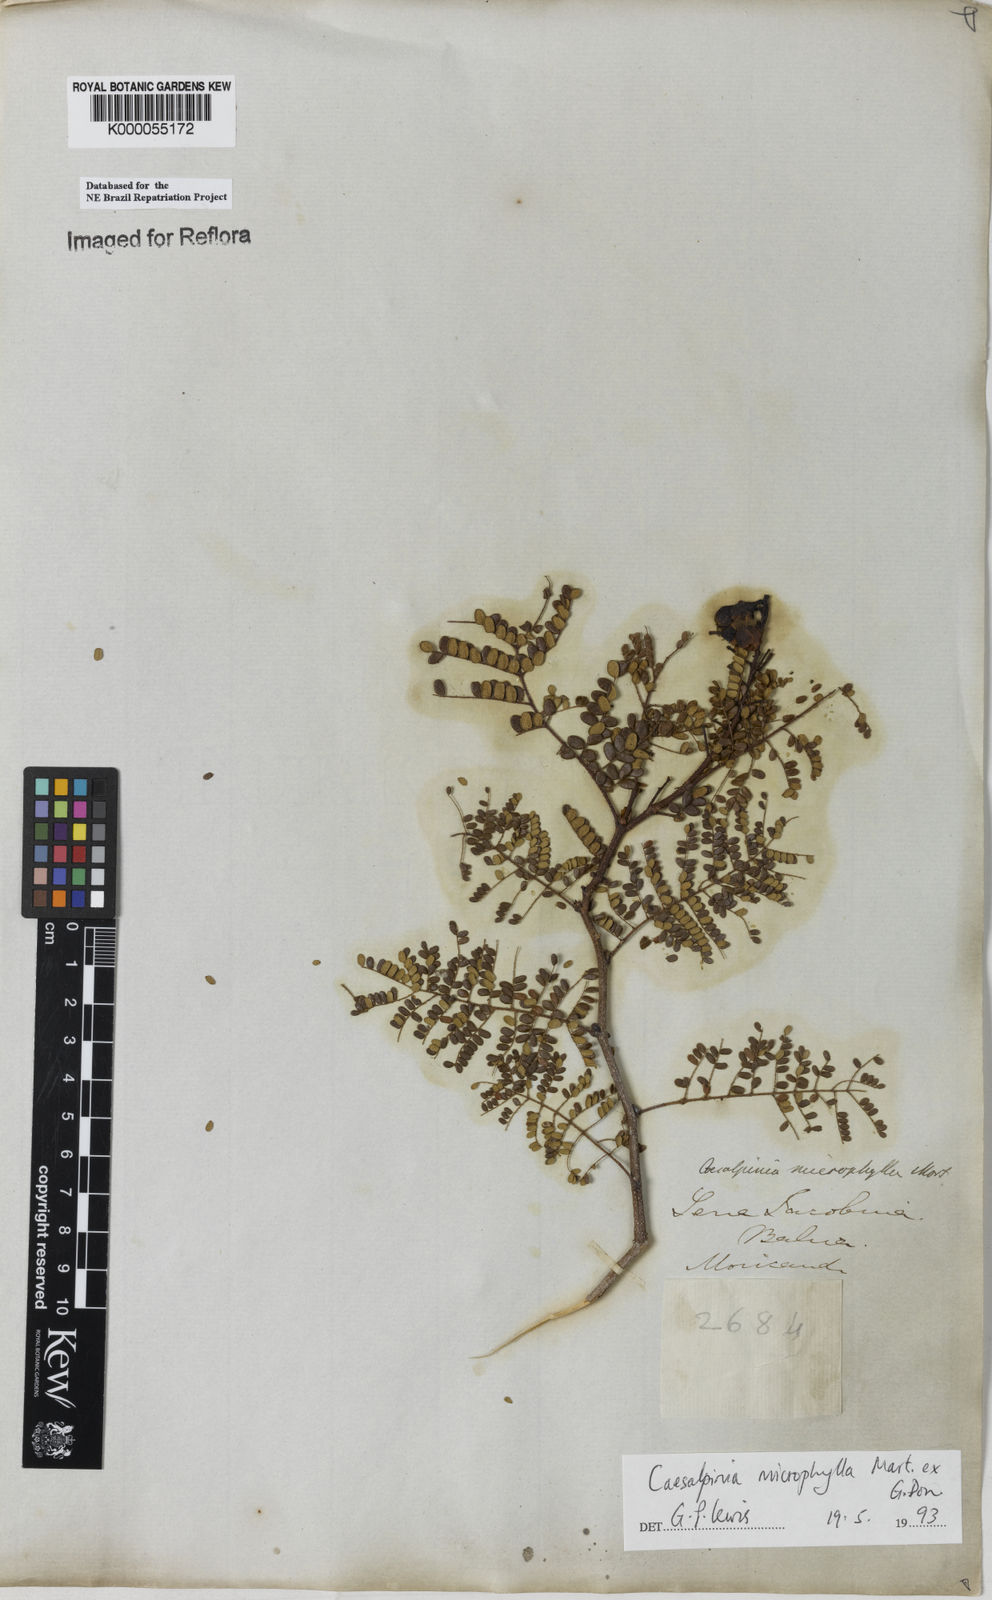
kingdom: Plantae
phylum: Tracheophyta
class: Magnoliopsida
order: Fabales
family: Fabaceae
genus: Cenostigma
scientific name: Cenostigma microphyllum
